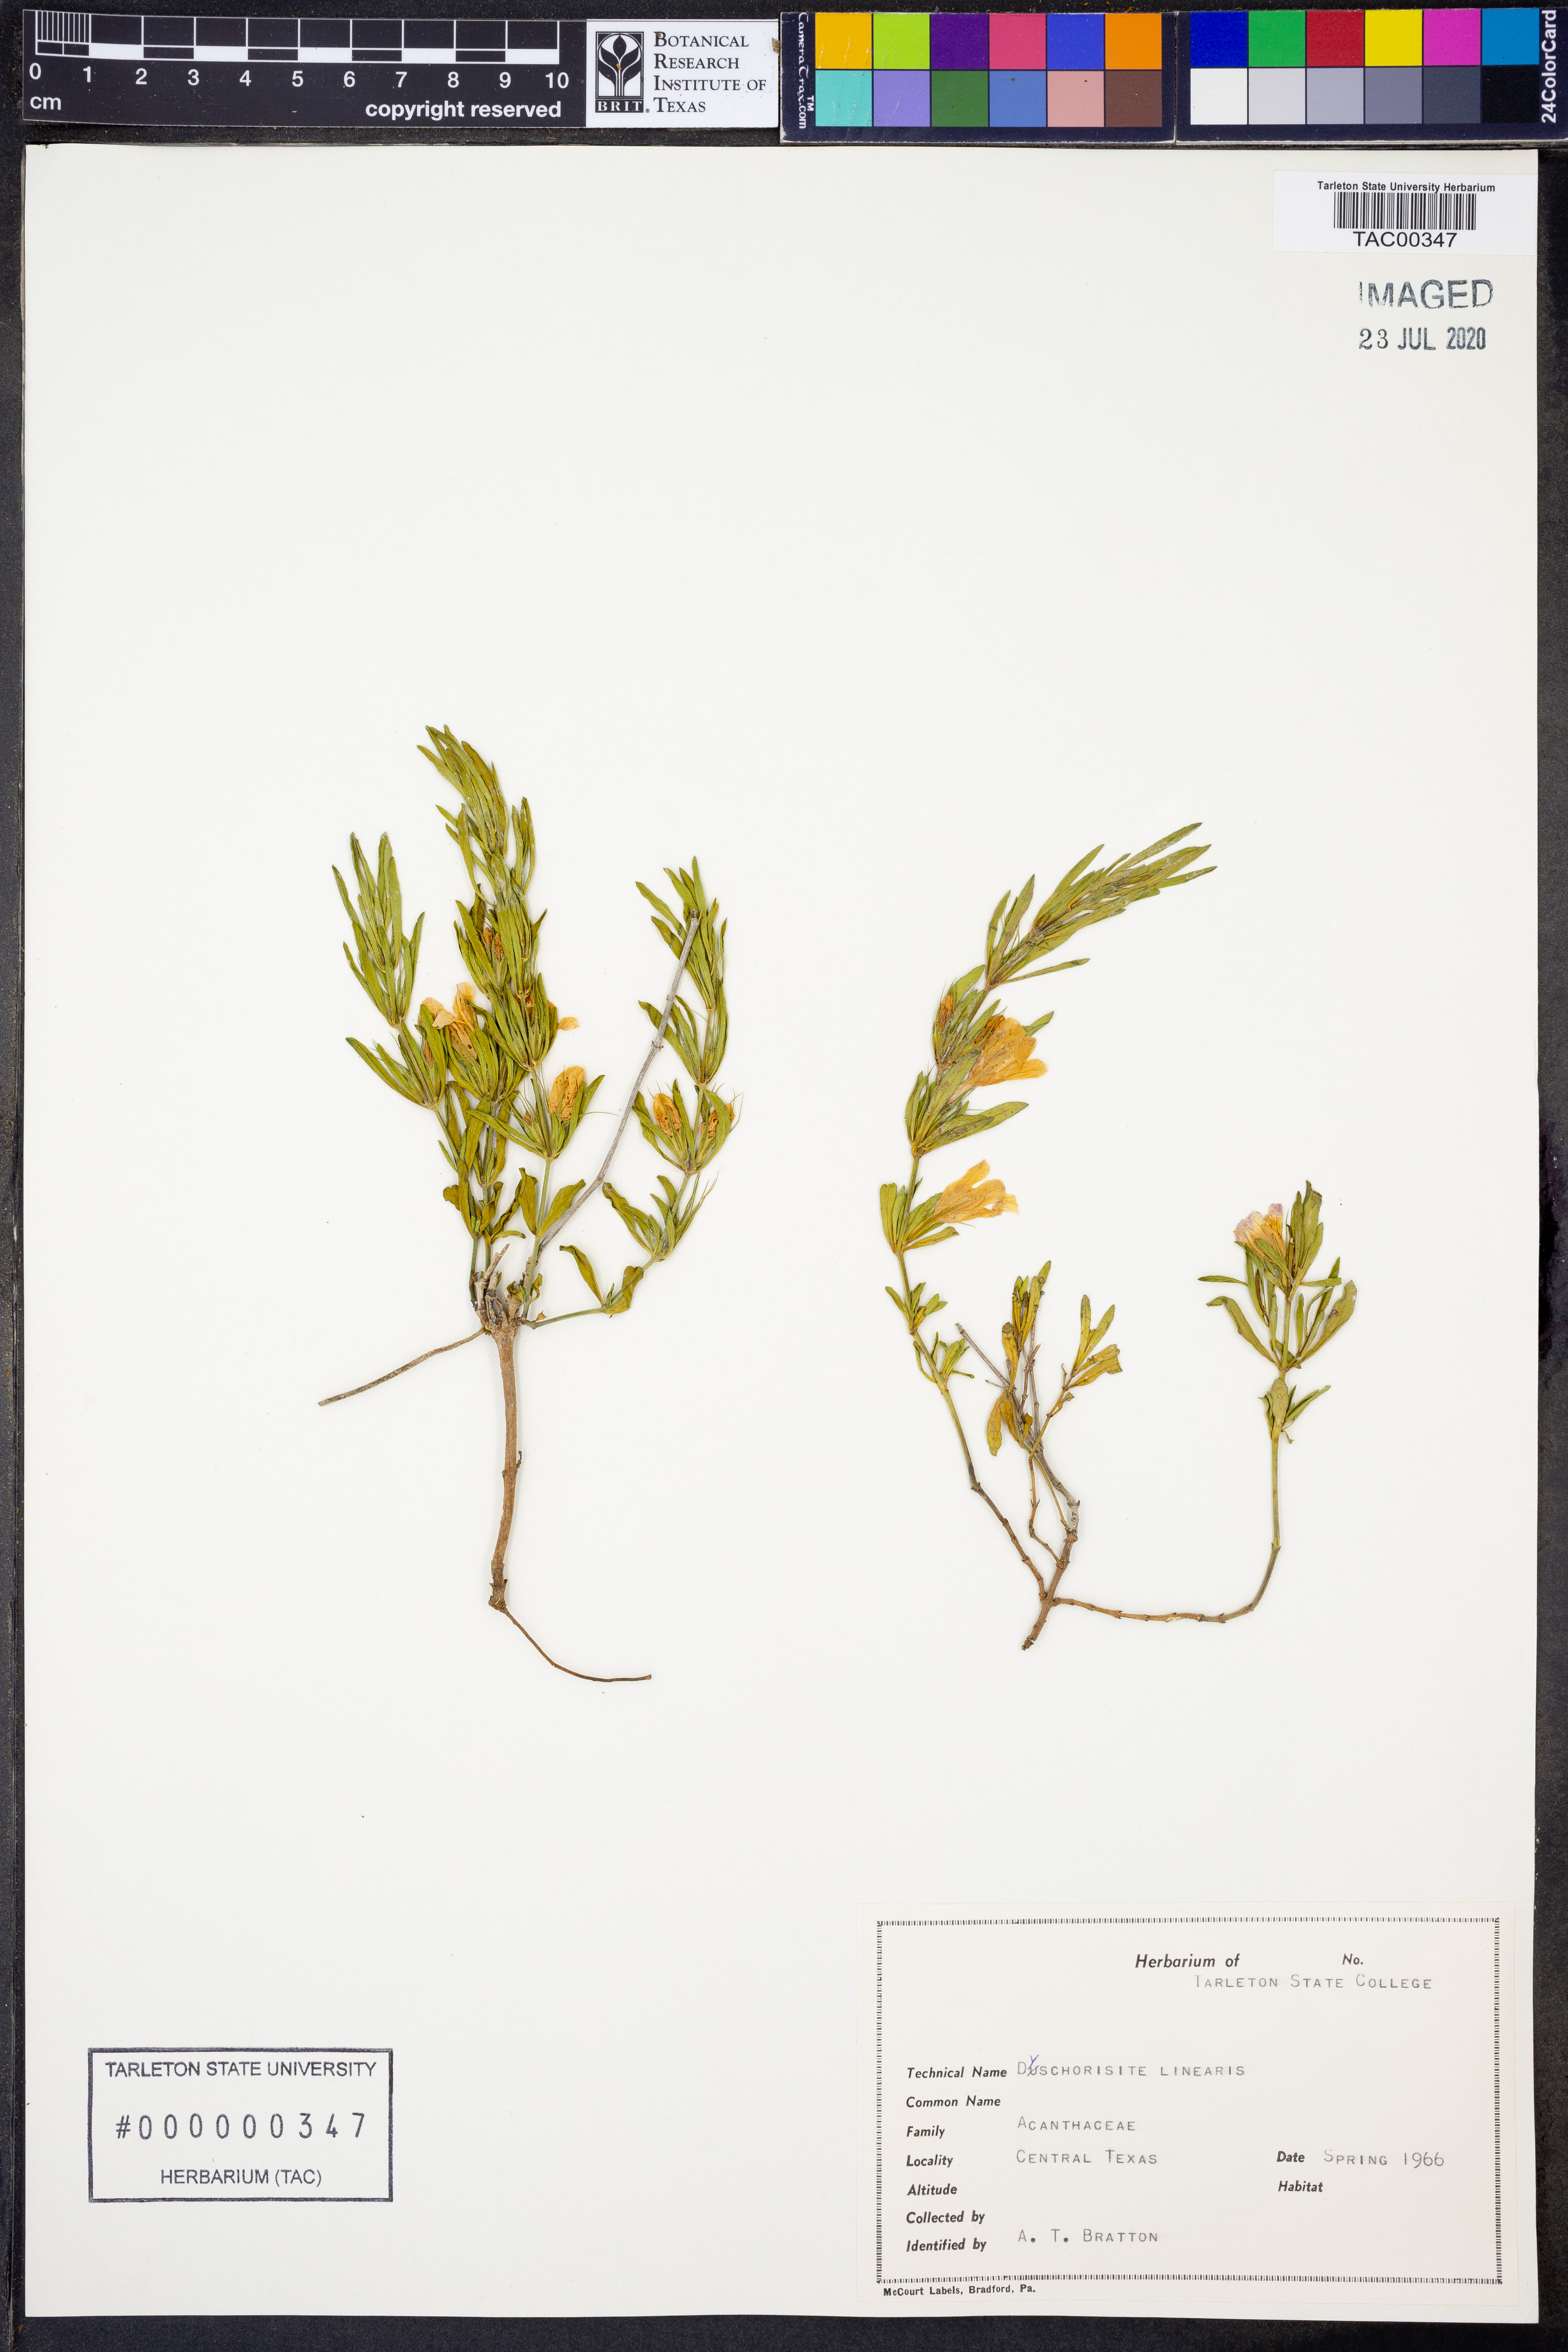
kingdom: Plantae
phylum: Tracheophyta
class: Magnoliopsida
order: Lamiales
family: Acanthaceae
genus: Dyschoriste
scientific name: Dyschoriste linearis
